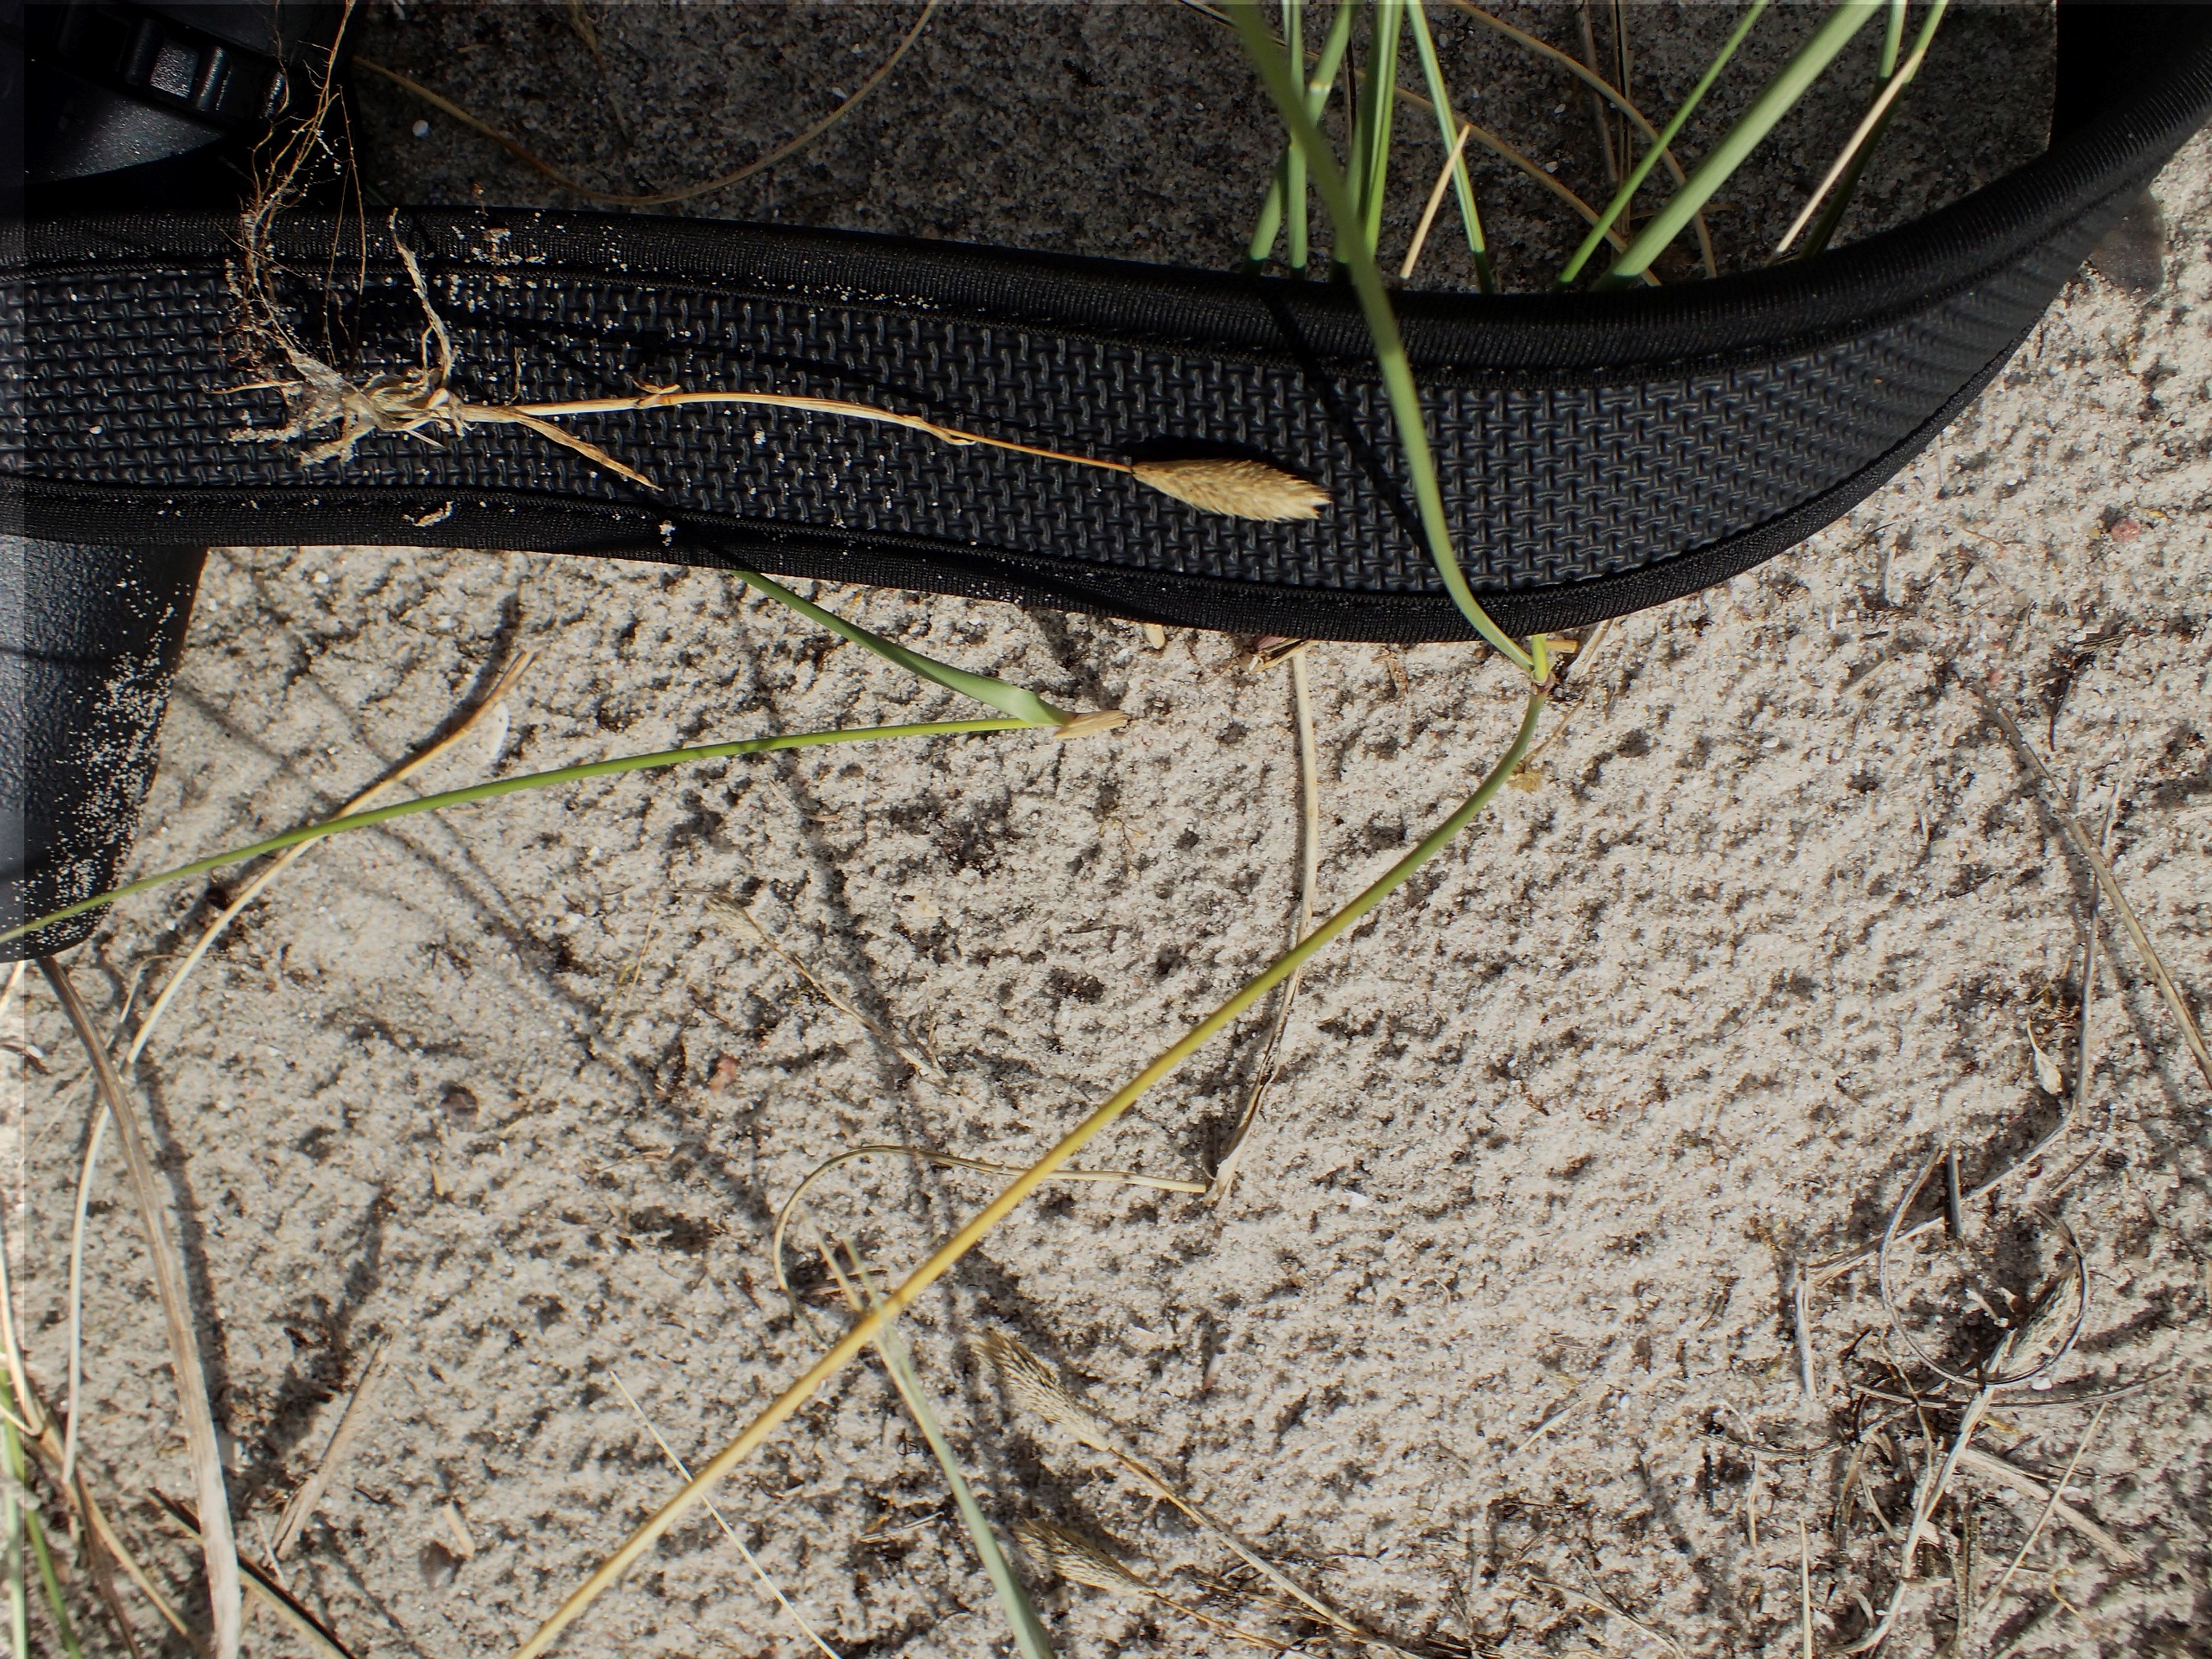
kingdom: Plantae
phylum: Tracheophyta
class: Liliopsida
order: Poales
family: Poaceae
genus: Phleum
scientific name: Phleum arenarium
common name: Sand-rottehale
